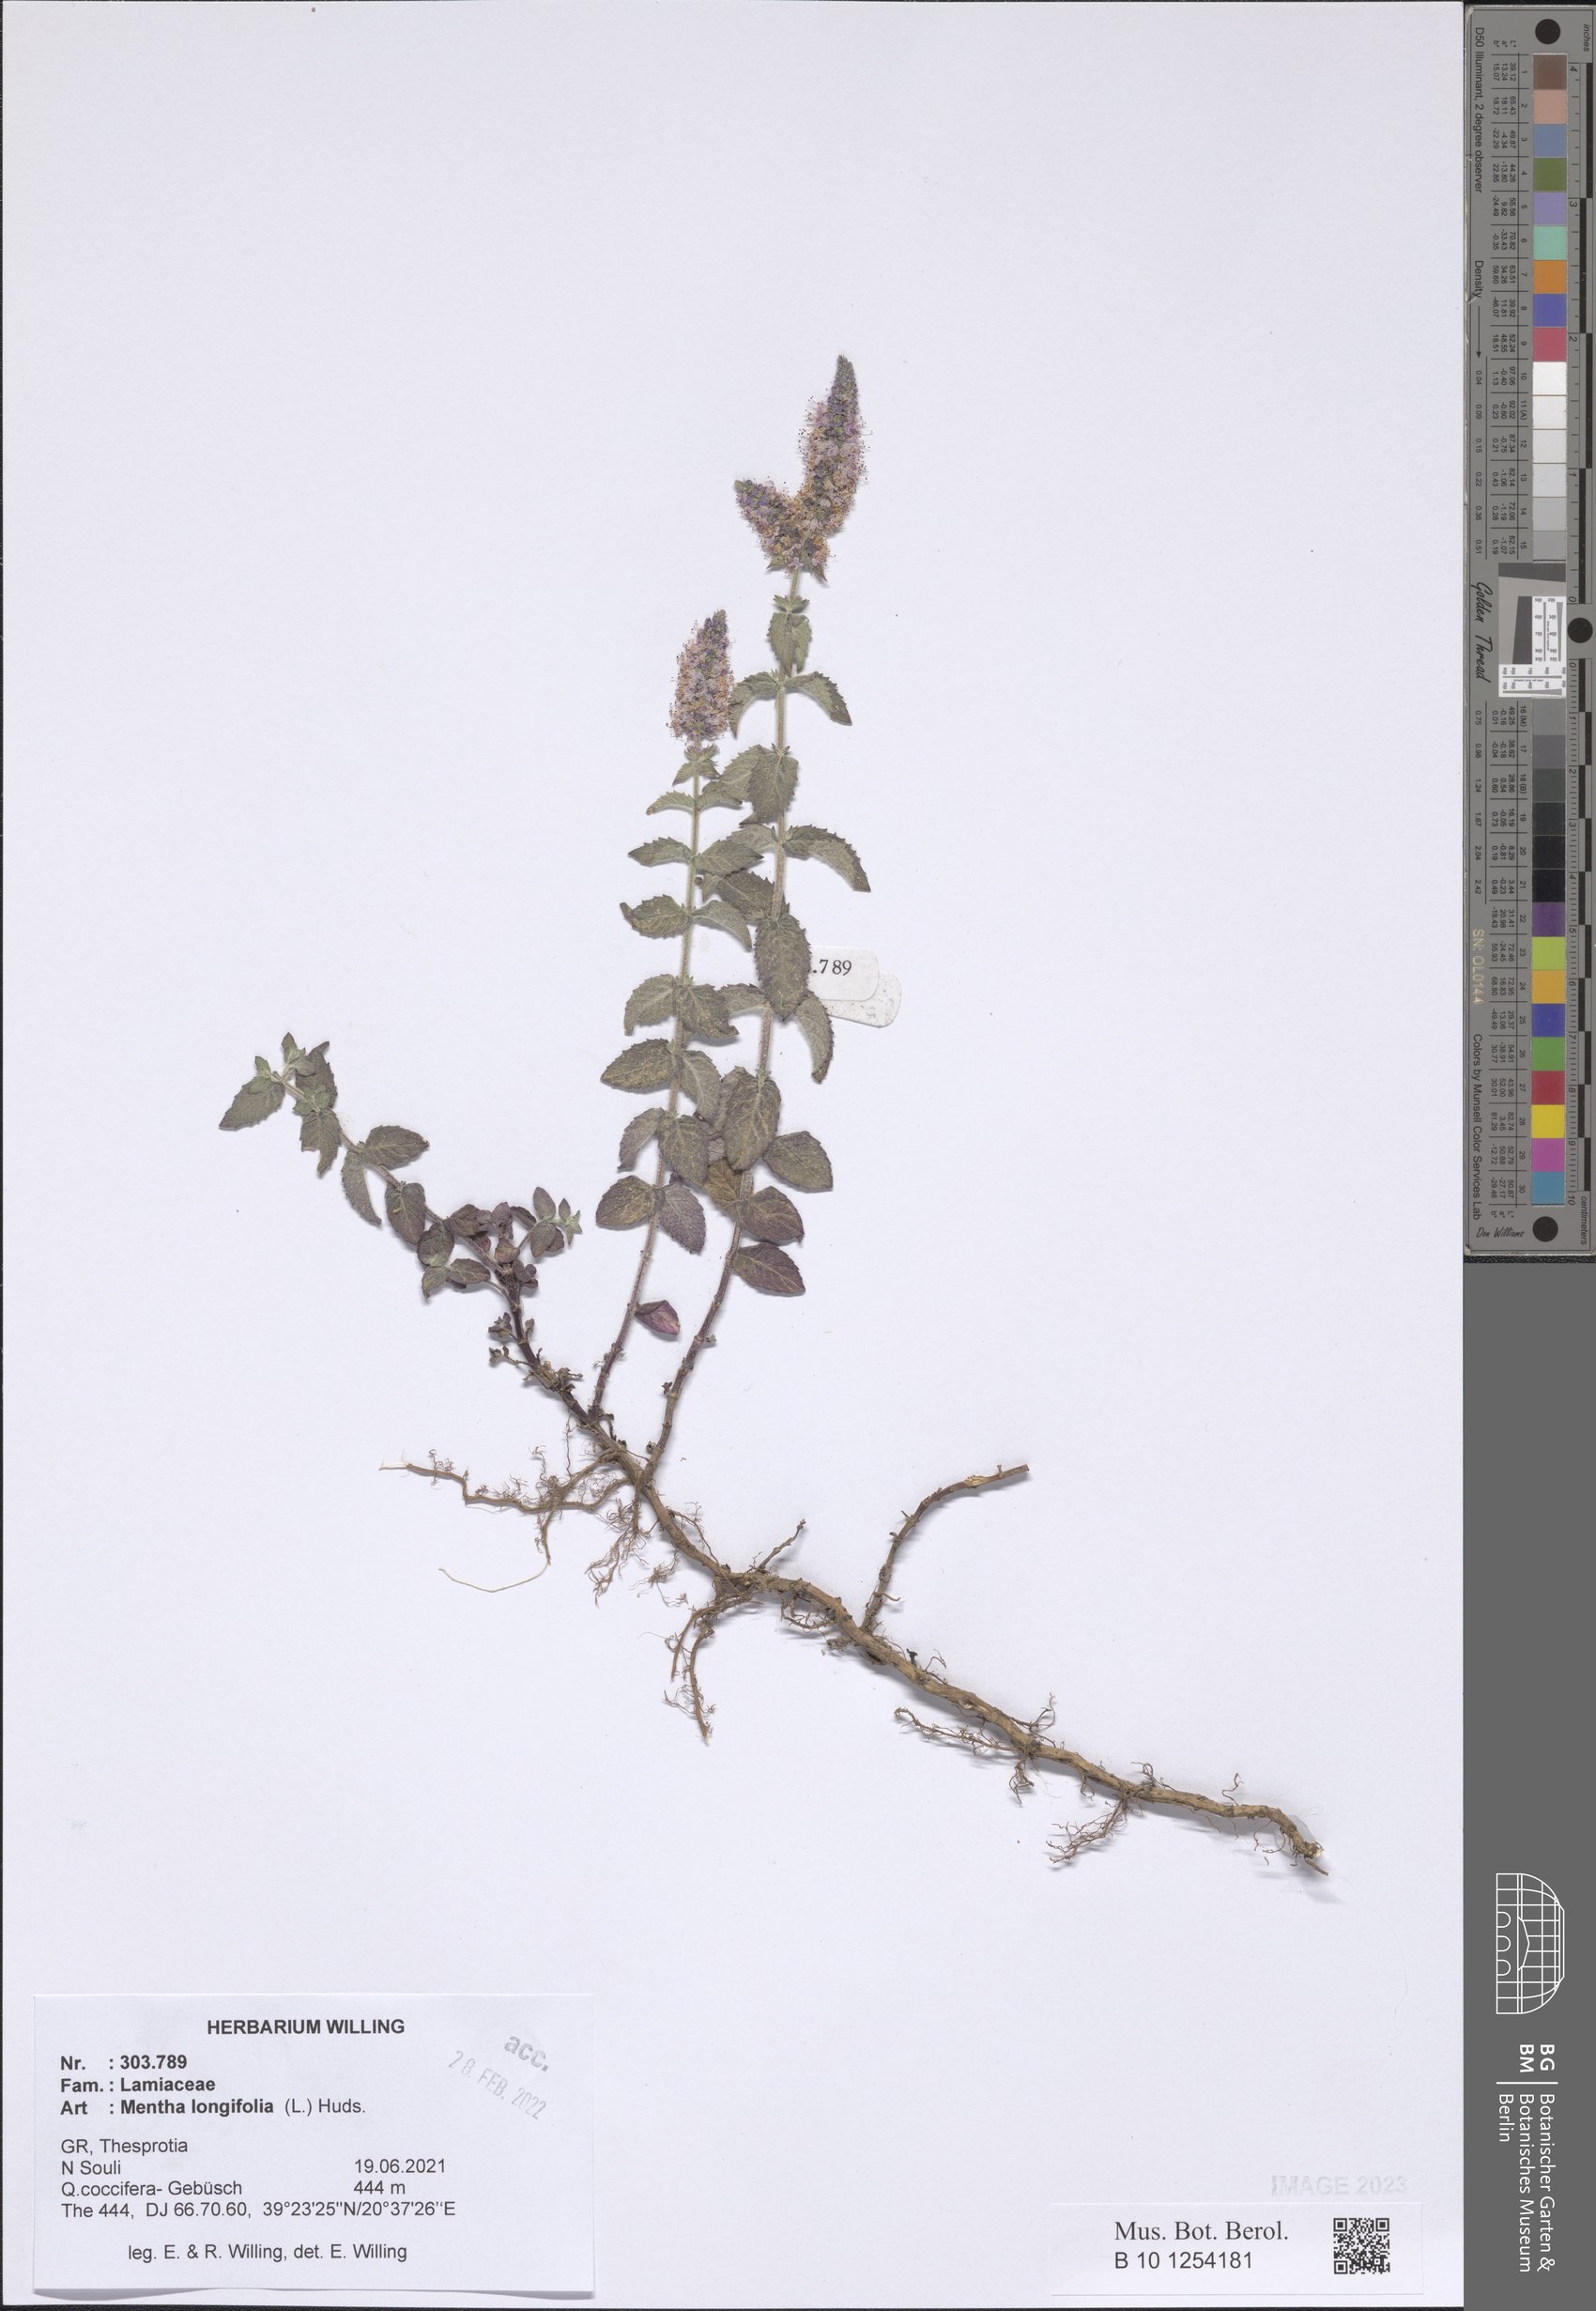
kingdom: Plantae
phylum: Tracheophyta
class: Magnoliopsida
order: Lamiales
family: Lamiaceae
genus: Mentha
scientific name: Mentha longifolia
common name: Horse mint
